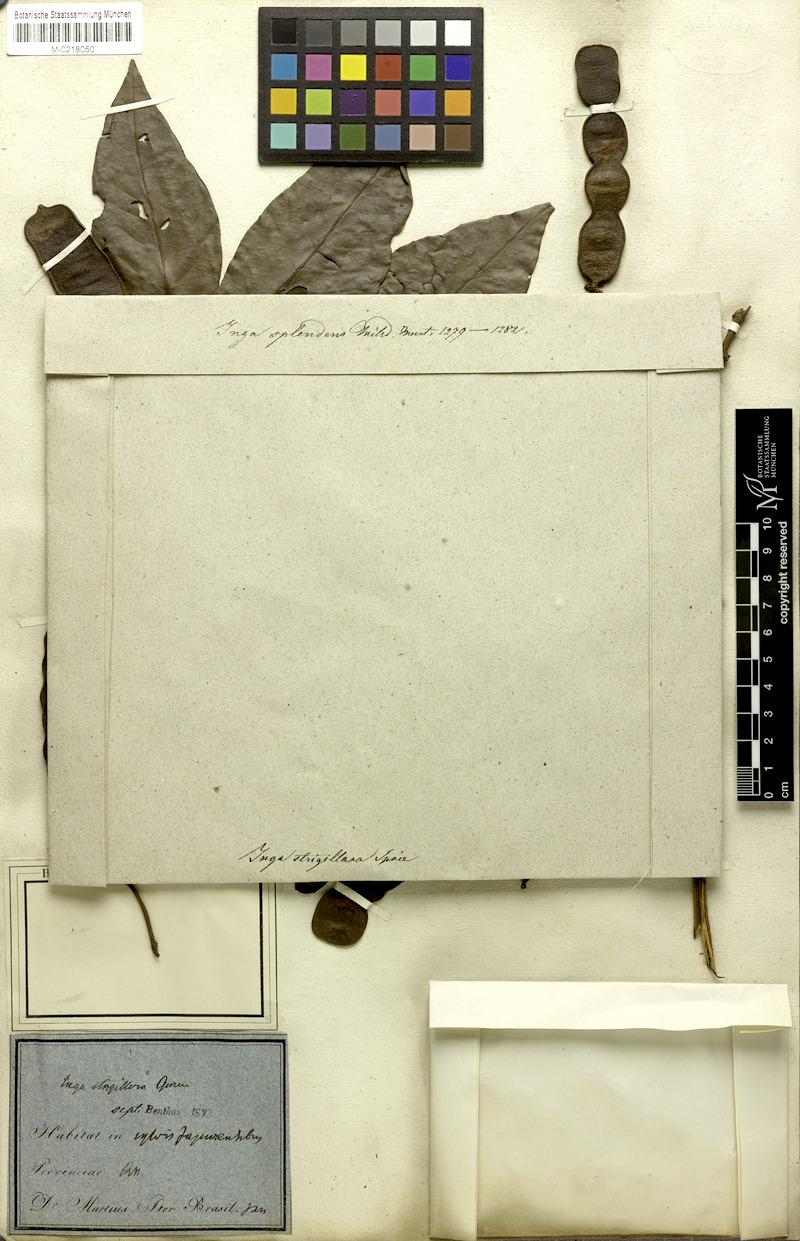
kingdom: Plantae
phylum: Tracheophyta
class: Magnoliopsida
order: Fabales
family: Fabaceae
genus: Inga
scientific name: Inga punctata
